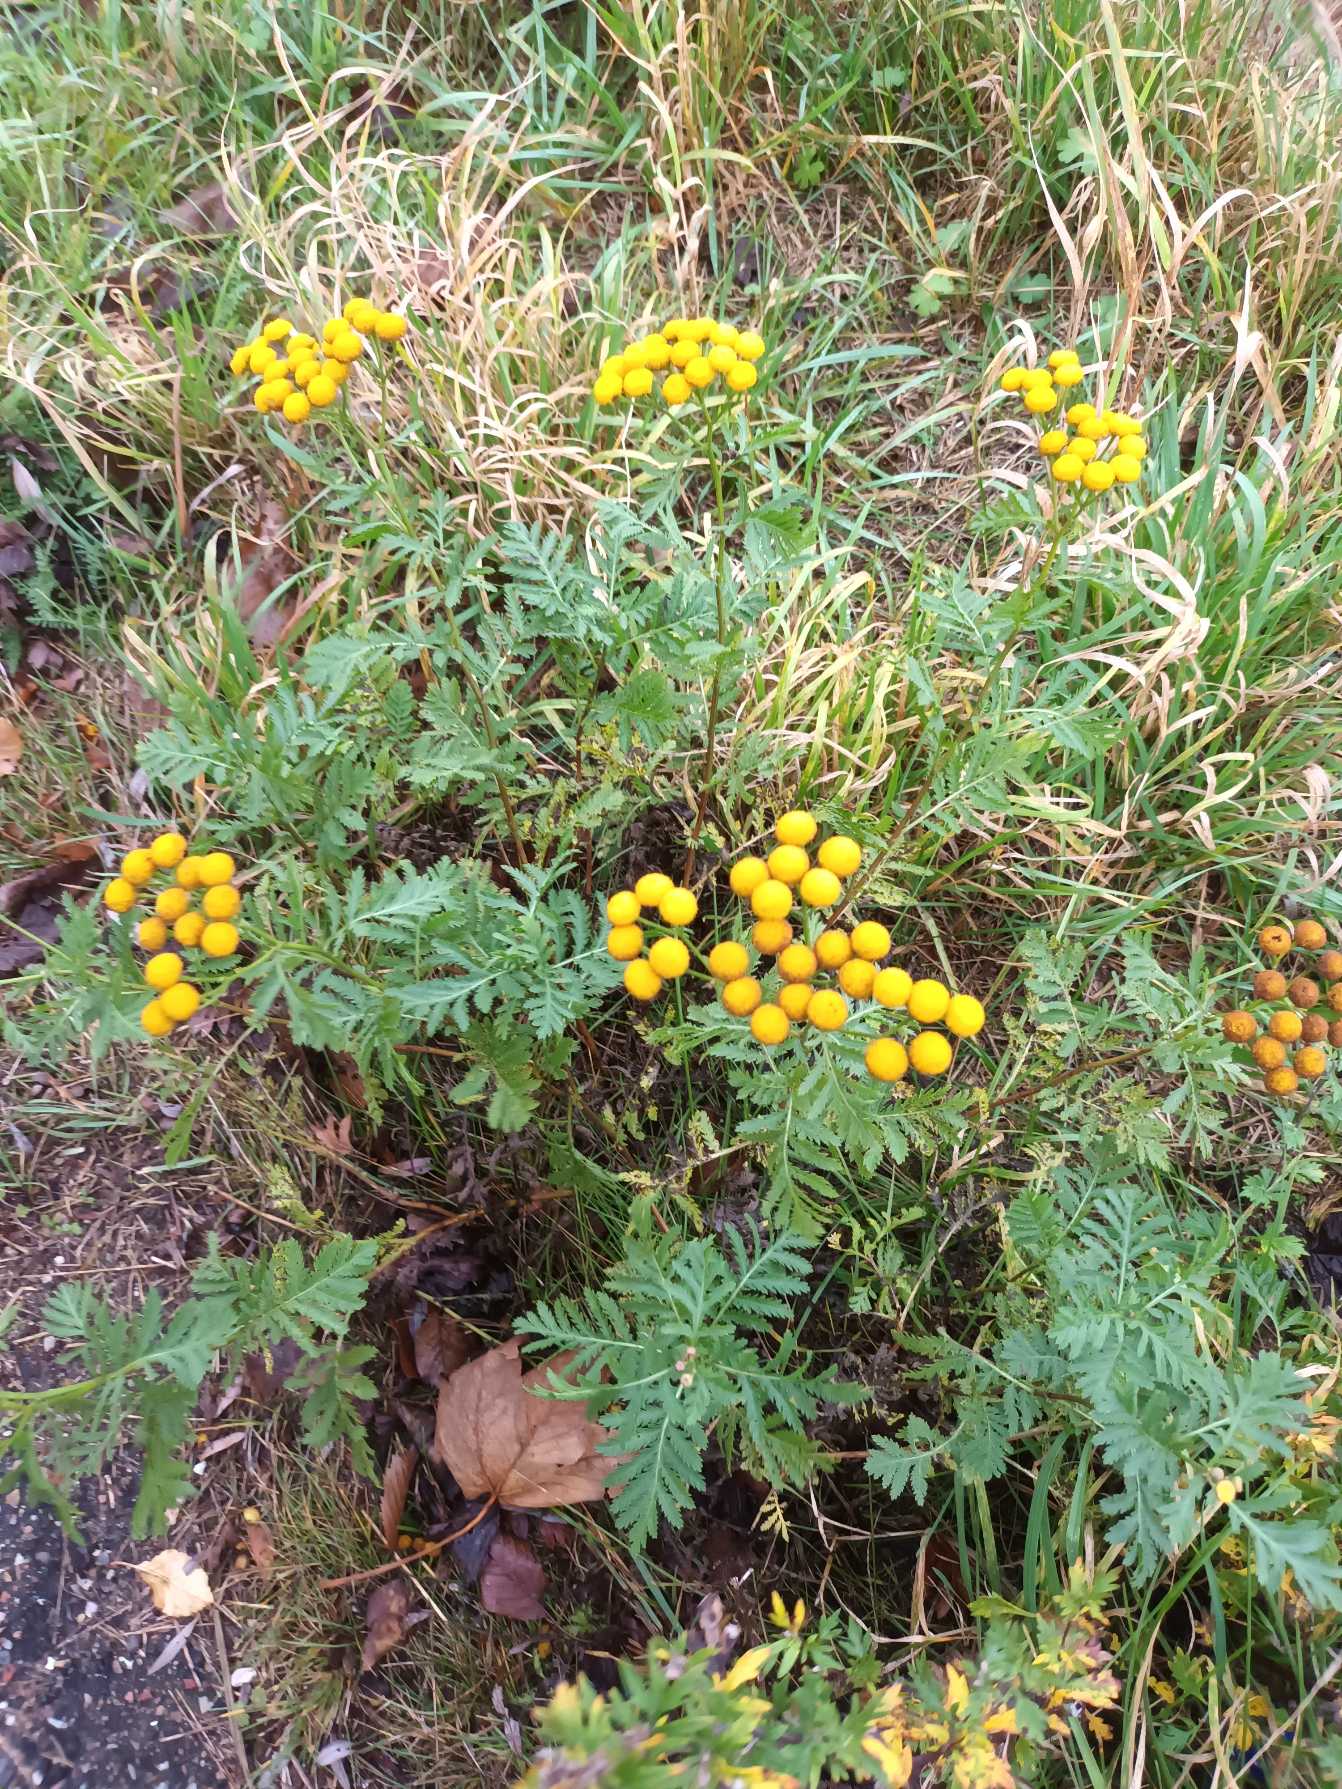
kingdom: Plantae
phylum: Tracheophyta
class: Magnoliopsida
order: Asterales
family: Asteraceae
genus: Tanacetum
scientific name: Tanacetum vulgare
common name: Rejnfan
